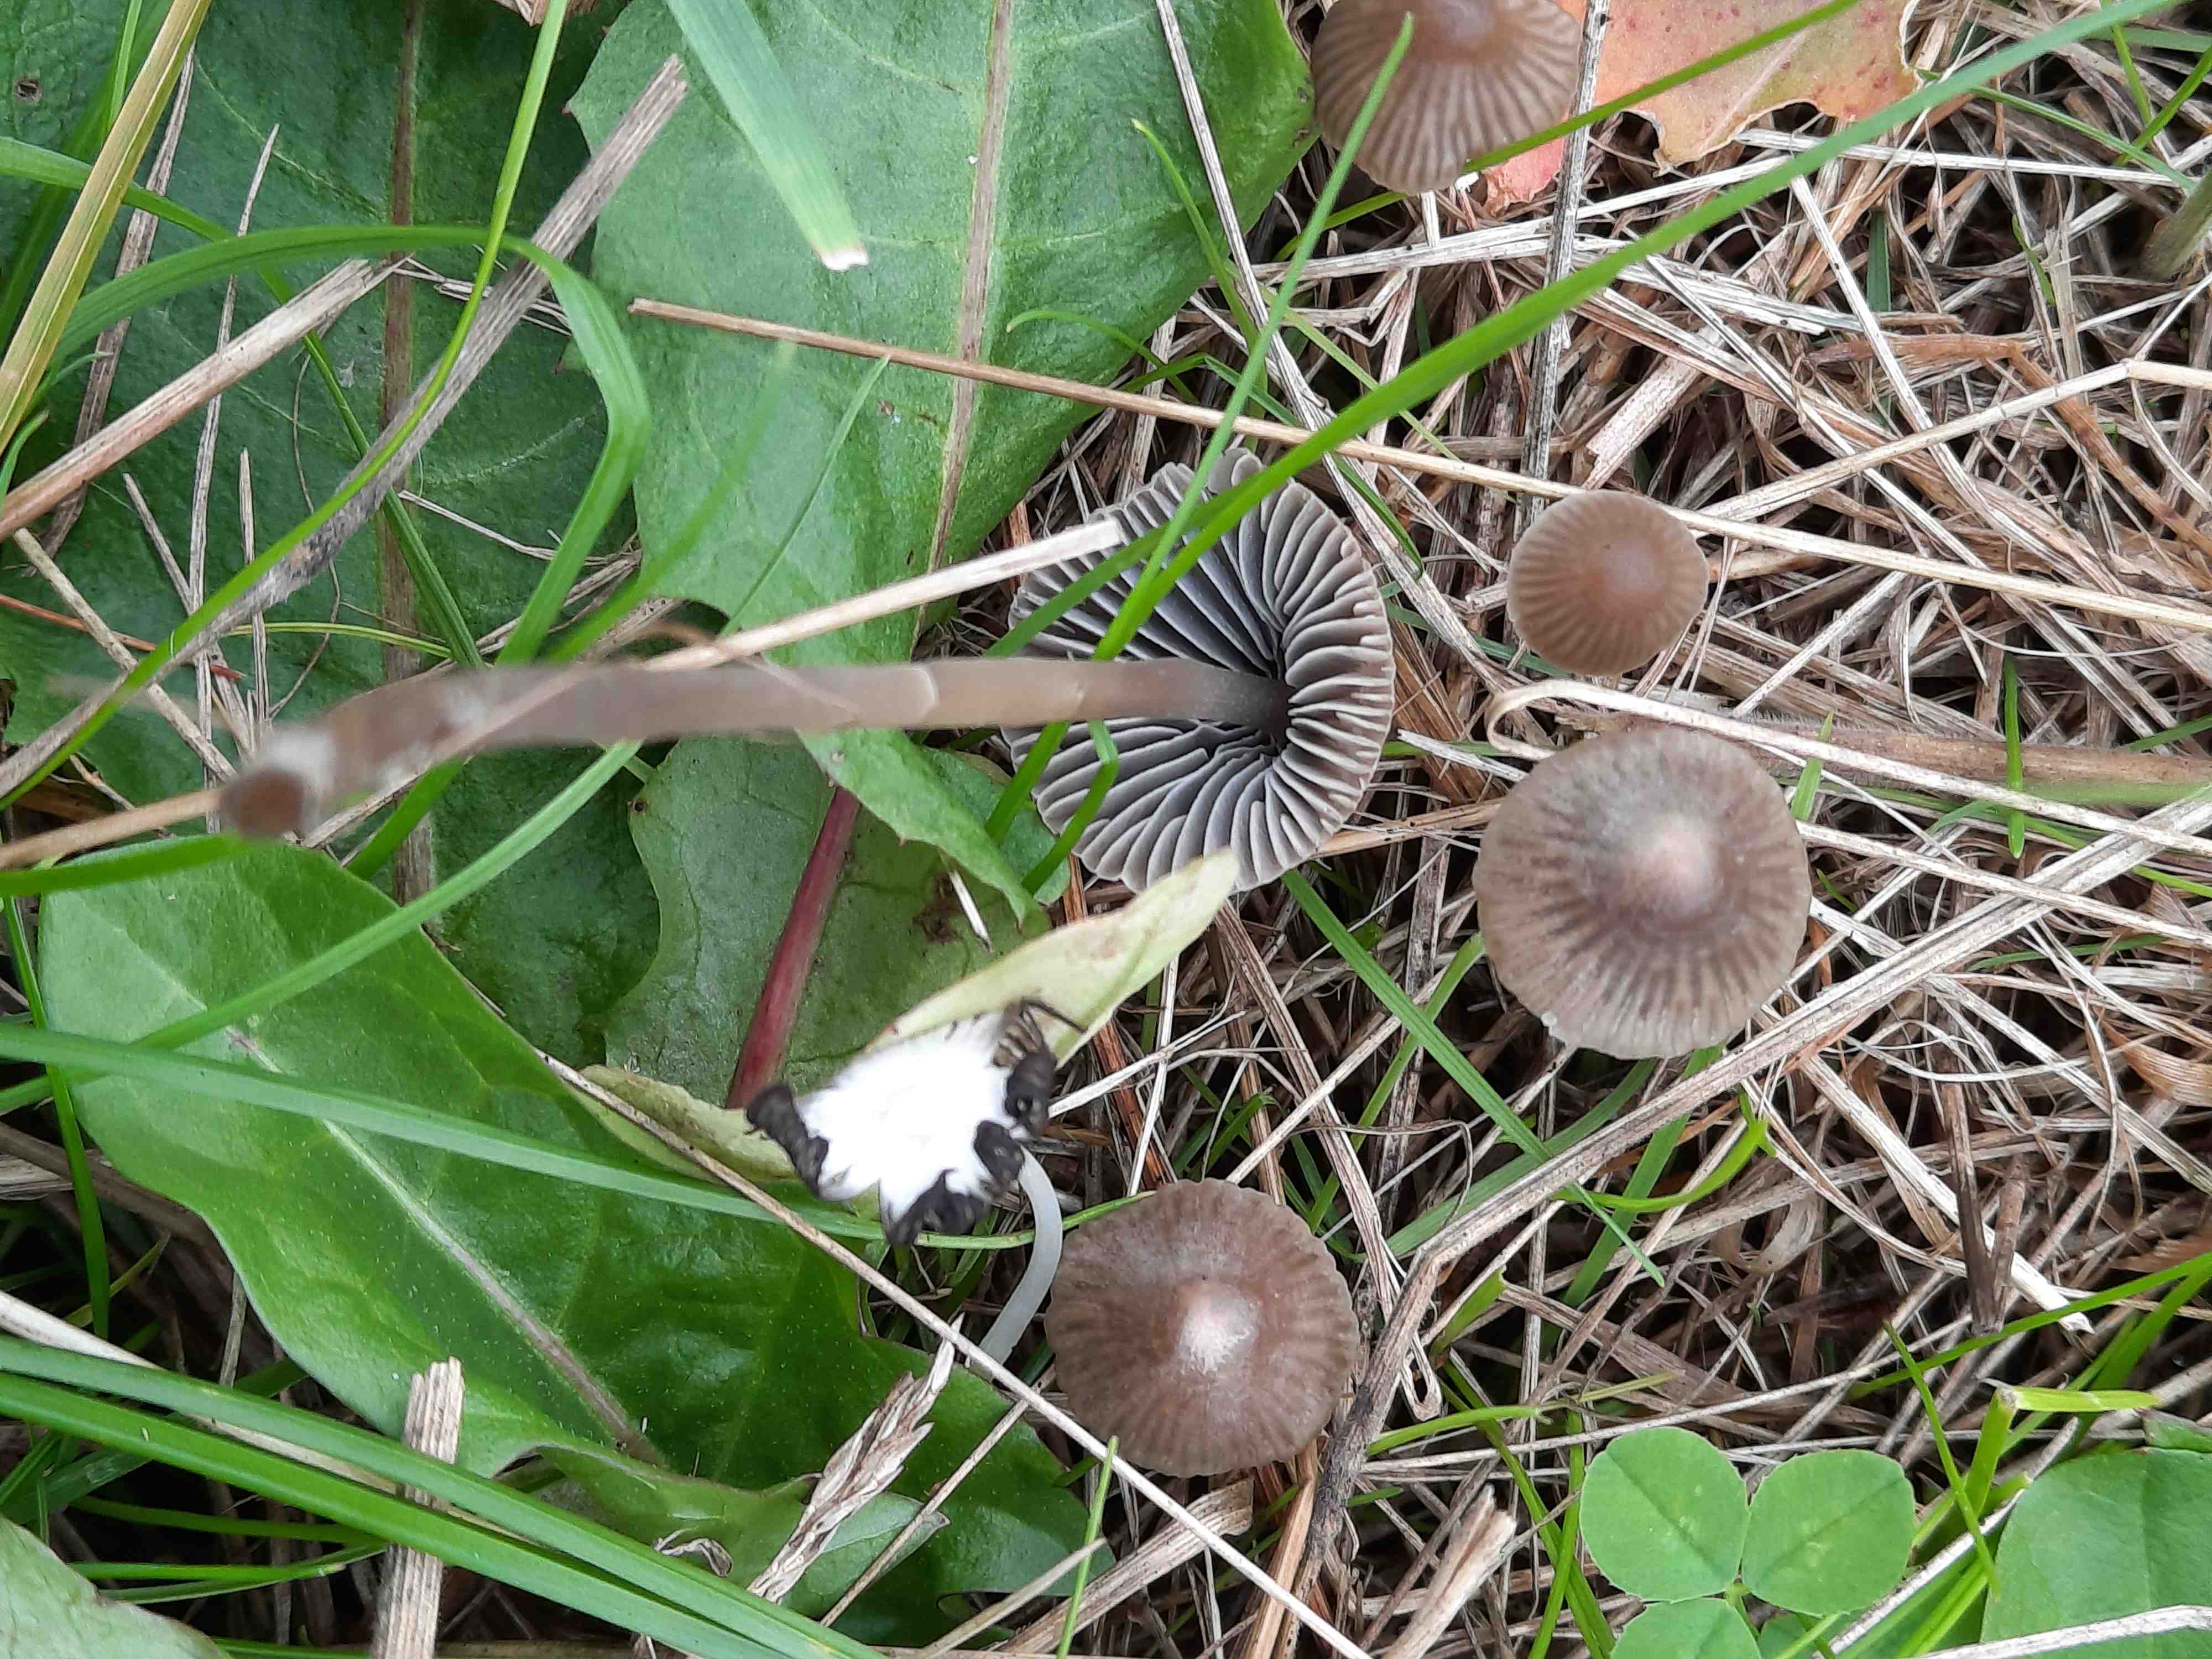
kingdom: Fungi
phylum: Basidiomycota
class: Agaricomycetes
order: Agaricales
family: Mycenaceae
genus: Mycena
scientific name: Mycena aetites
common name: plæne-huesvamp
